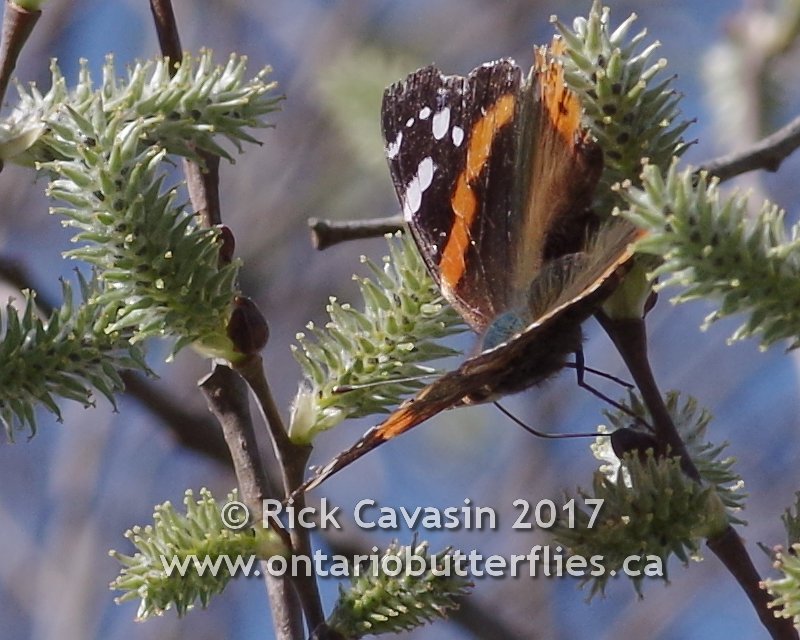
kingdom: Animalia
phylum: Arthropoda
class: Insecta
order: Lepidoptera
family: Nymphalidae
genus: Vanessa
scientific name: Vanessa atalanta
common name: Red Admiral
